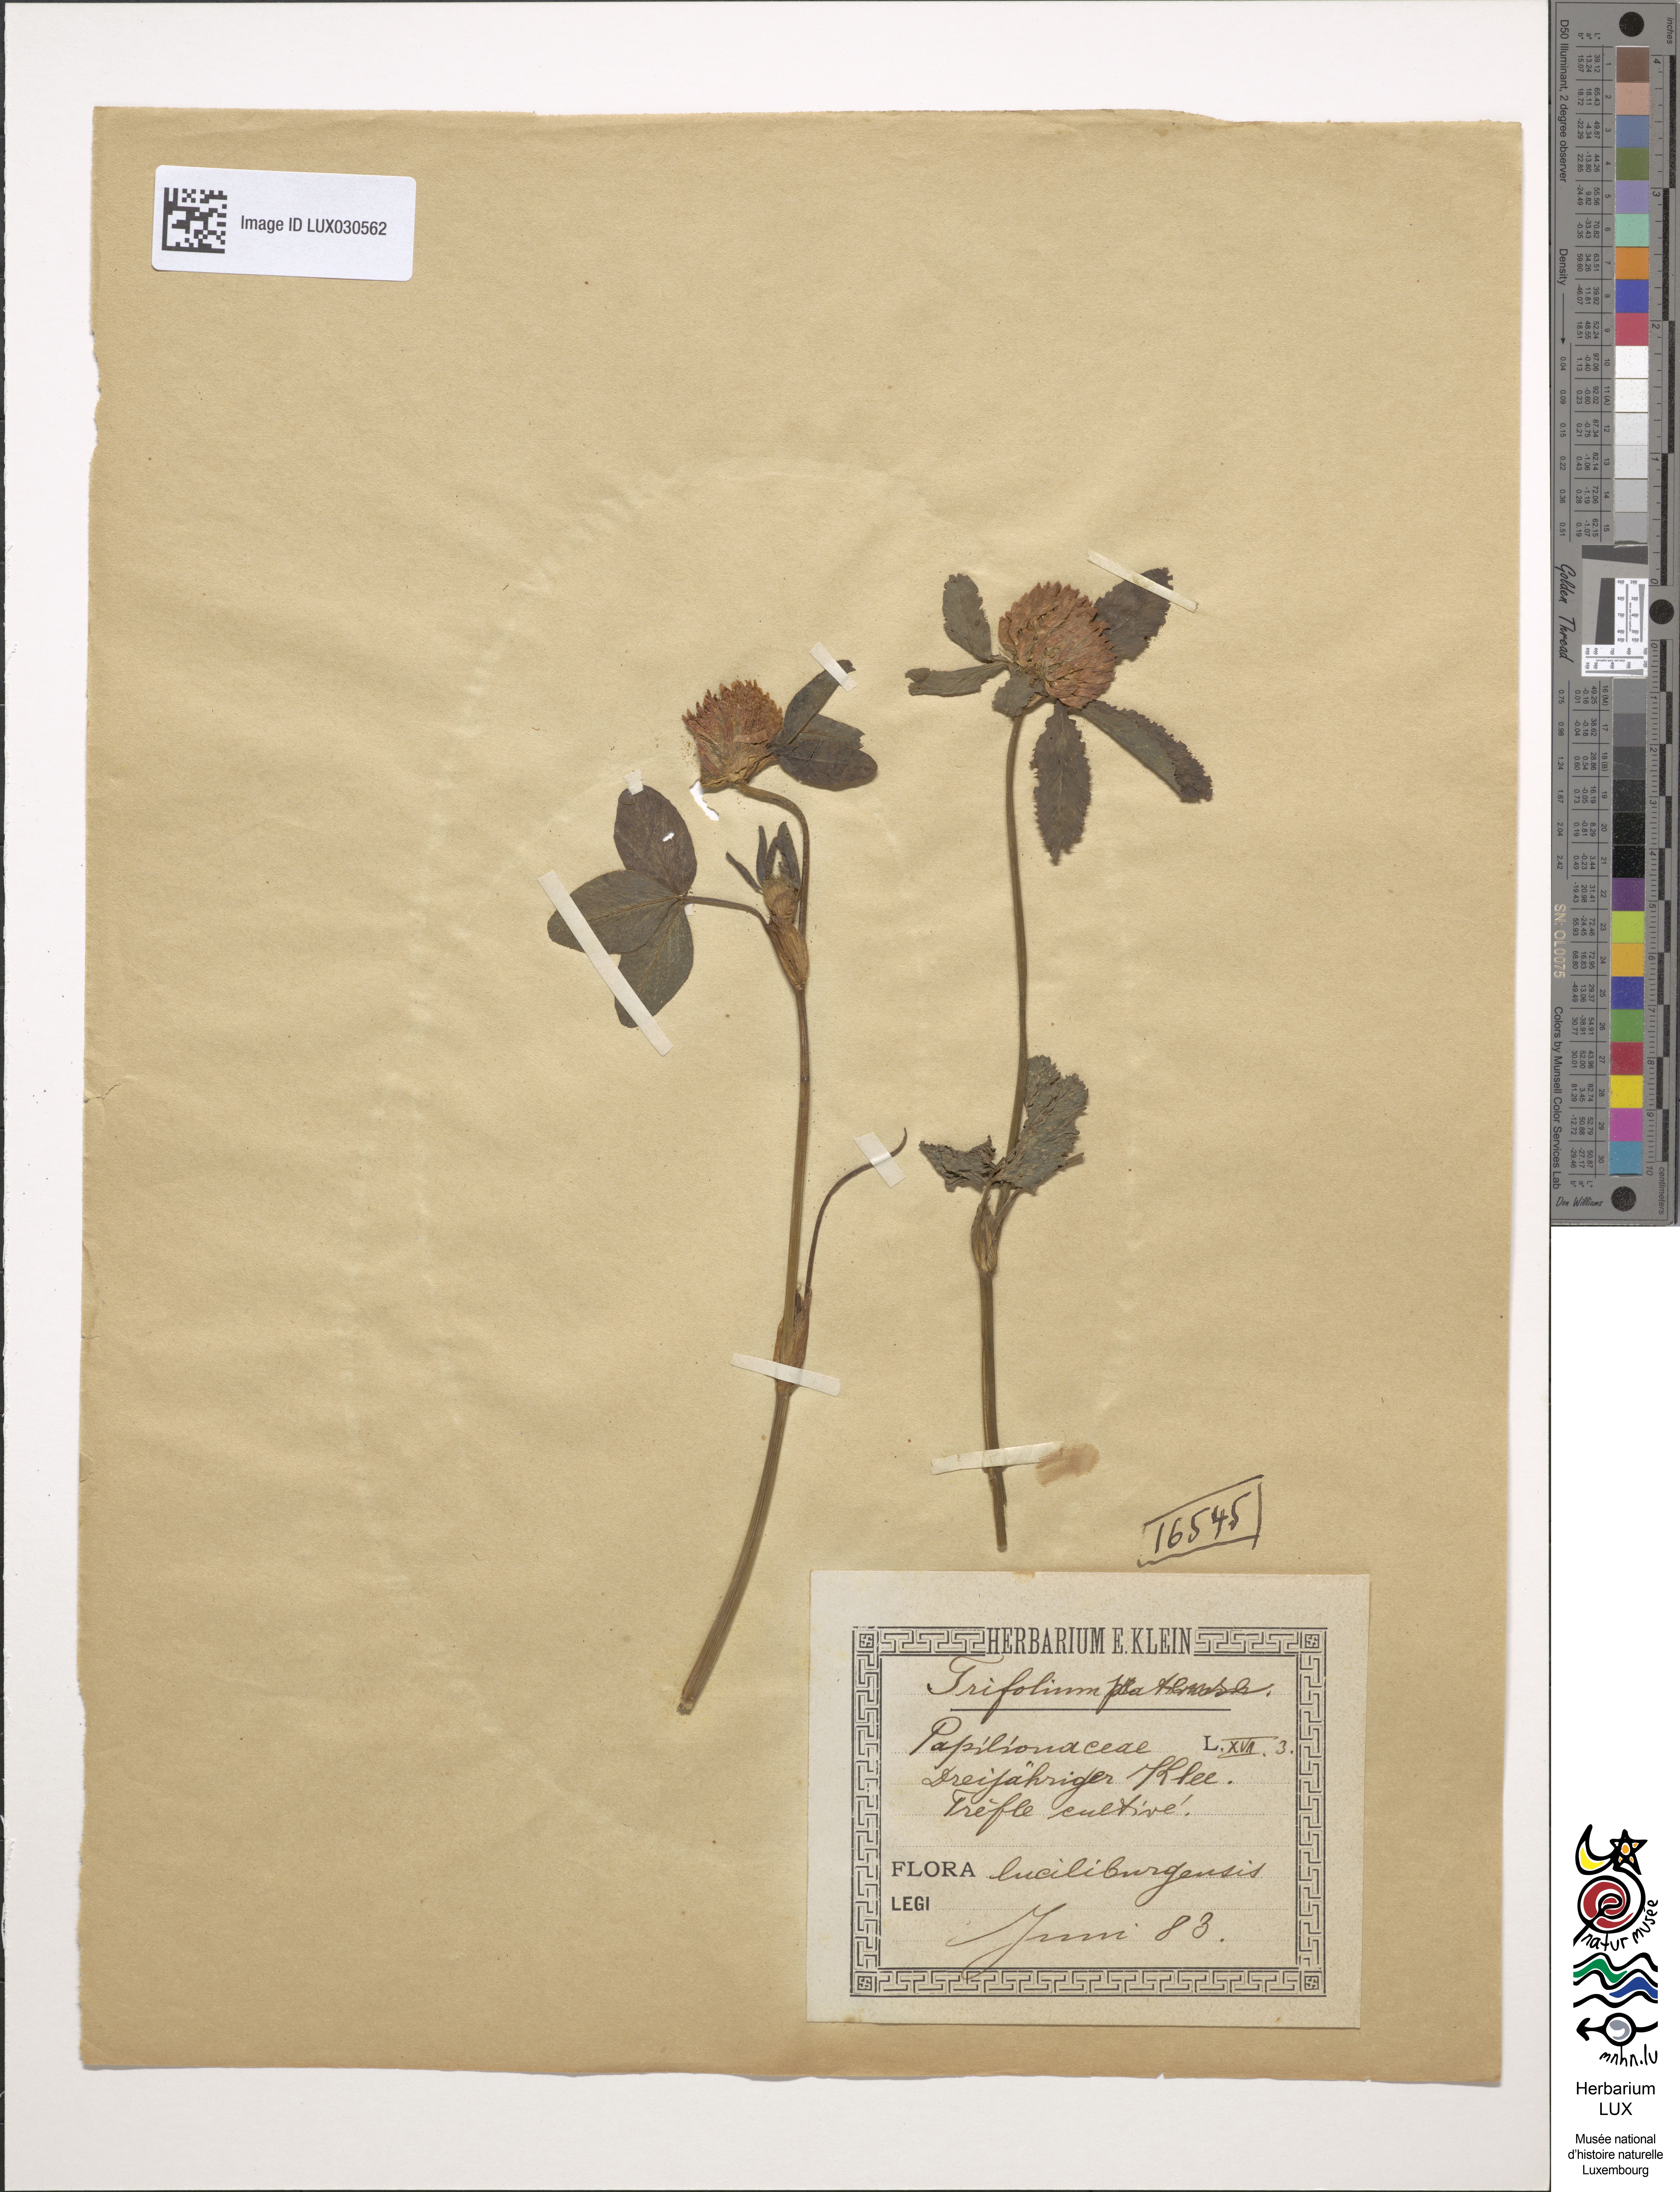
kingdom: Plantae
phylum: Tracheophyta
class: Magnoliopsida
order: Fabales
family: Fabaceae
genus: Trifolium
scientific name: Trifolium pratense
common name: Red clover
